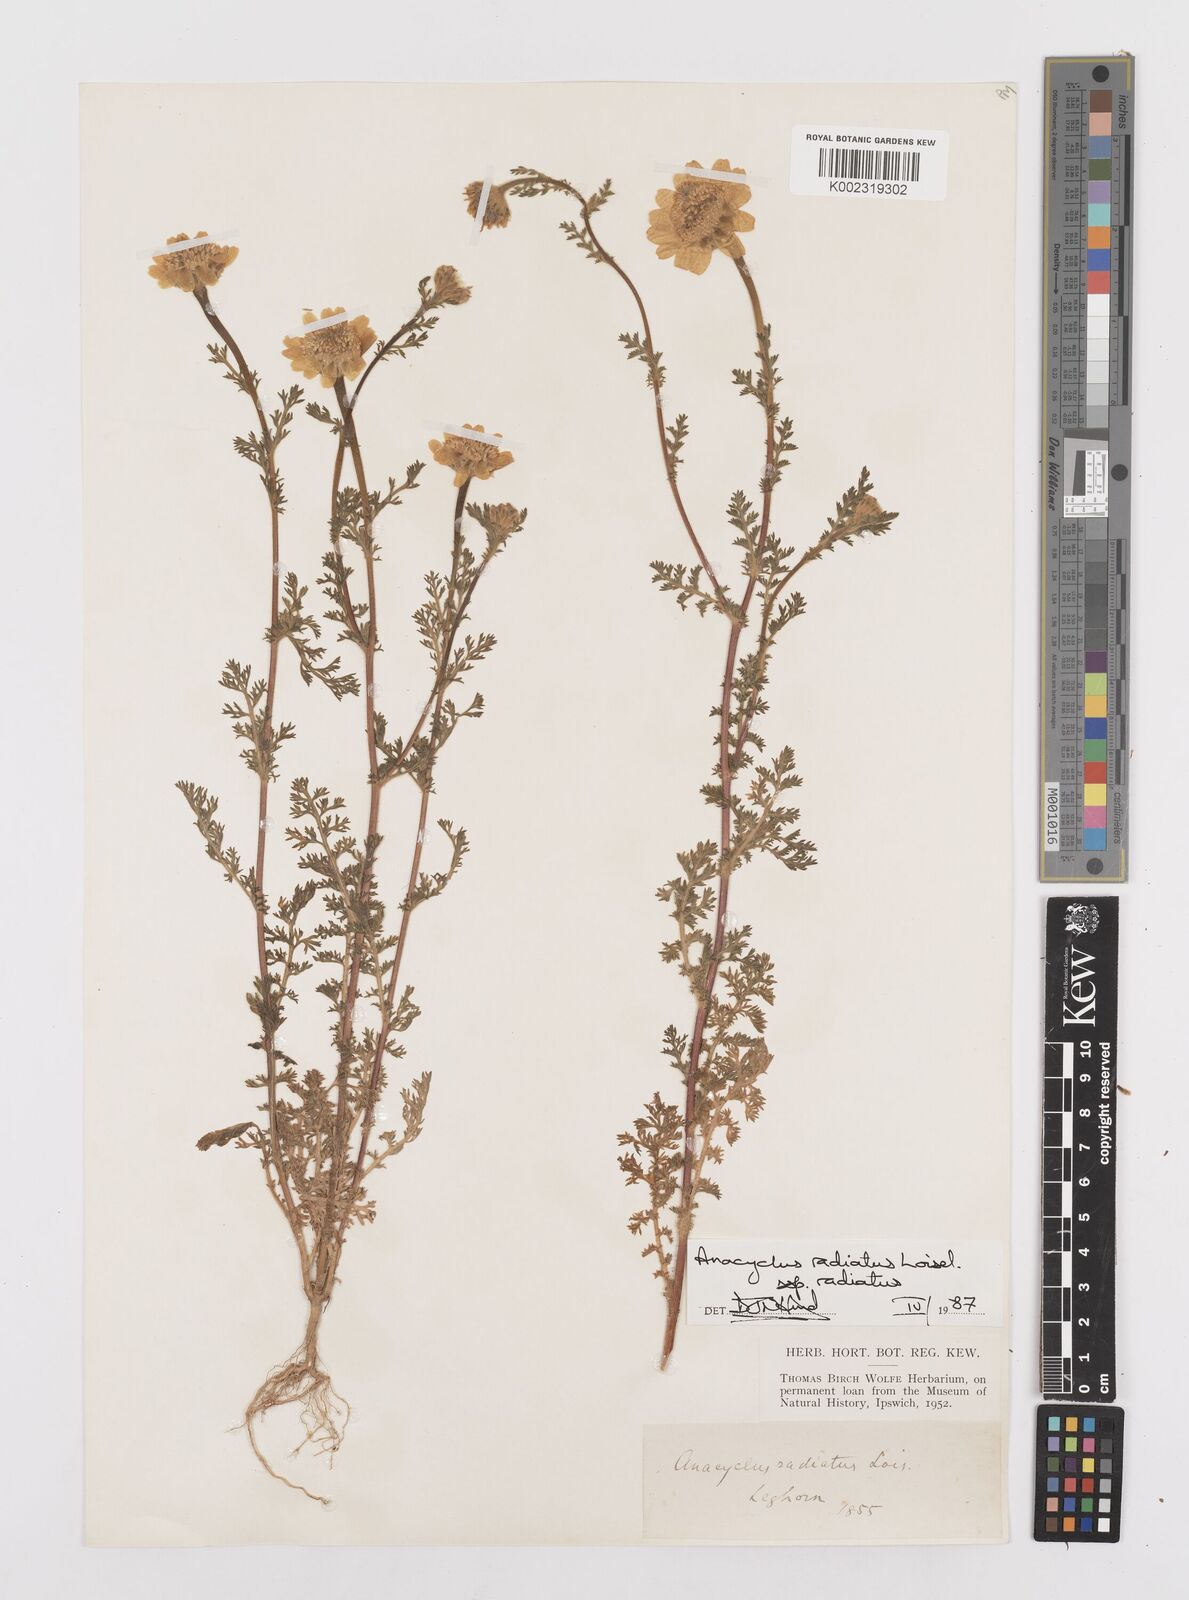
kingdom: Plantae
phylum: Tracheophyta
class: Magnoliopsida
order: Asterales
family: Asteraceae
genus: Anacyclus
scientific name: Anacyclus radiatus
